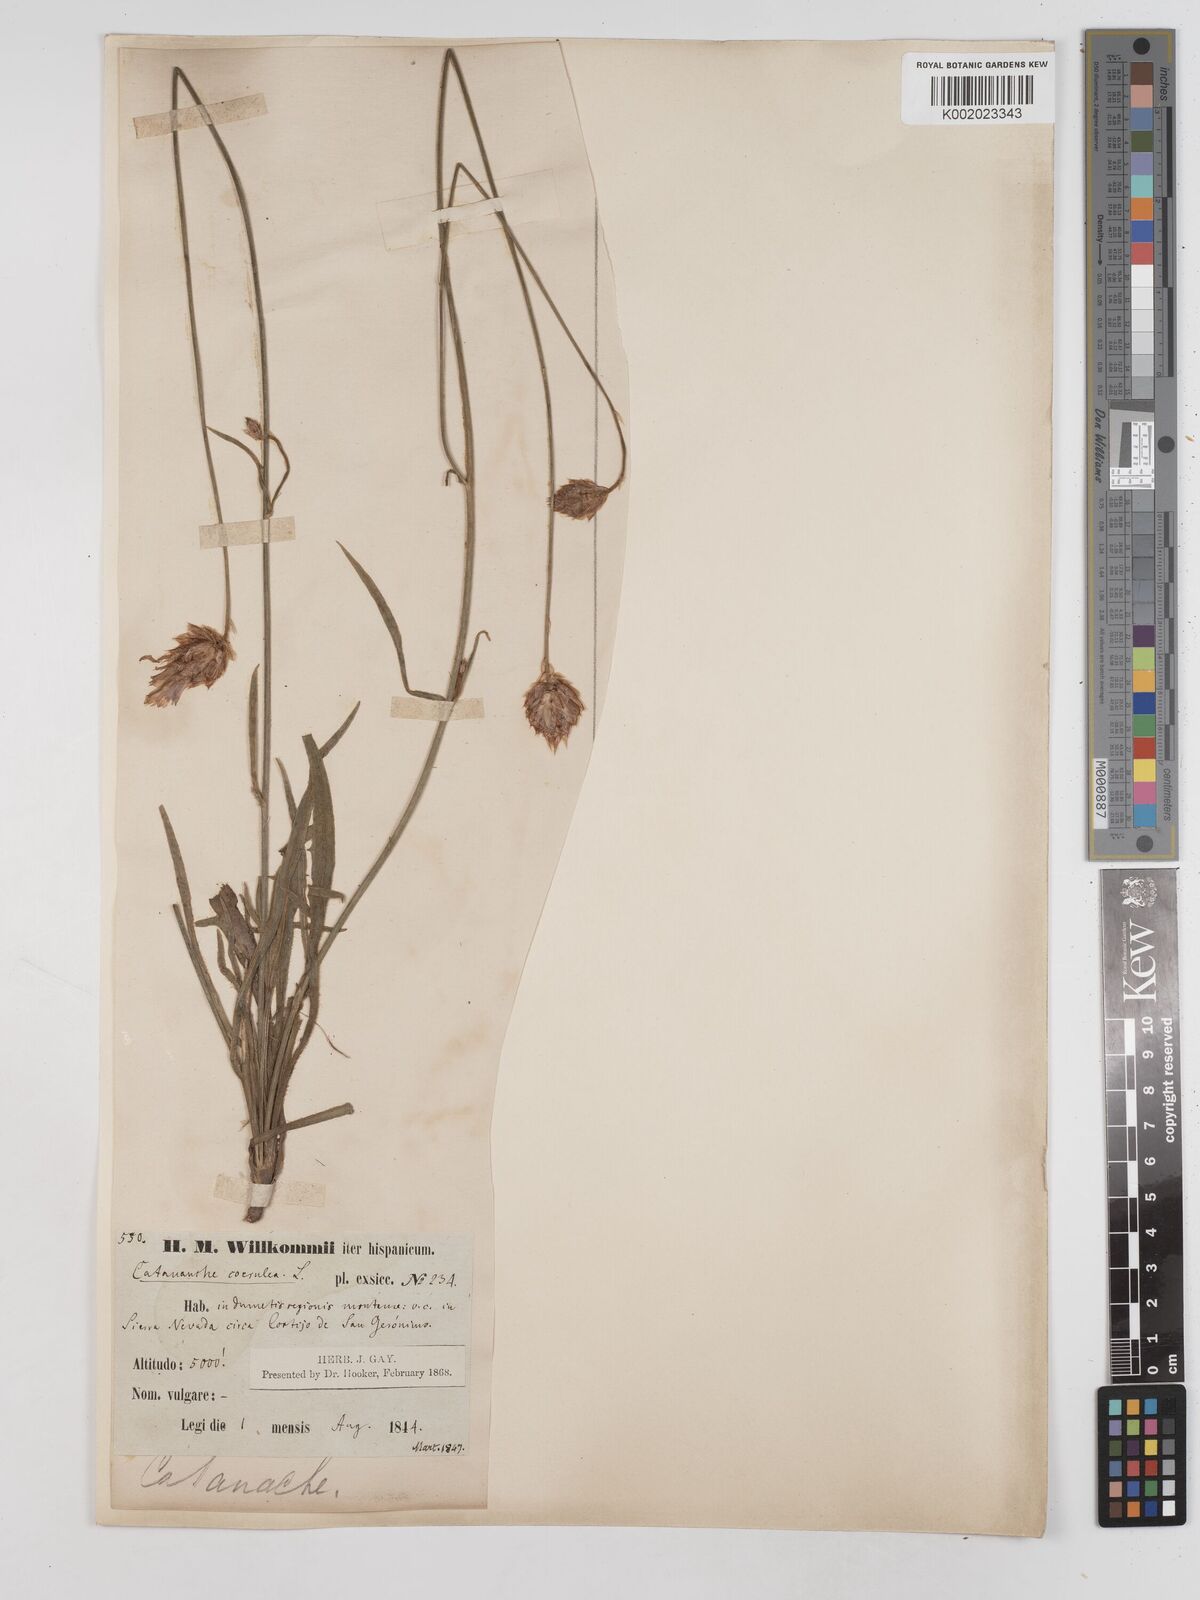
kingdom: Plantae
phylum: Tracheophyta
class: Magnoliopsida
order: Asterales
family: Asteraceae
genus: Catananche
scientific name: Catananche caerulea
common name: Blue cupidone
